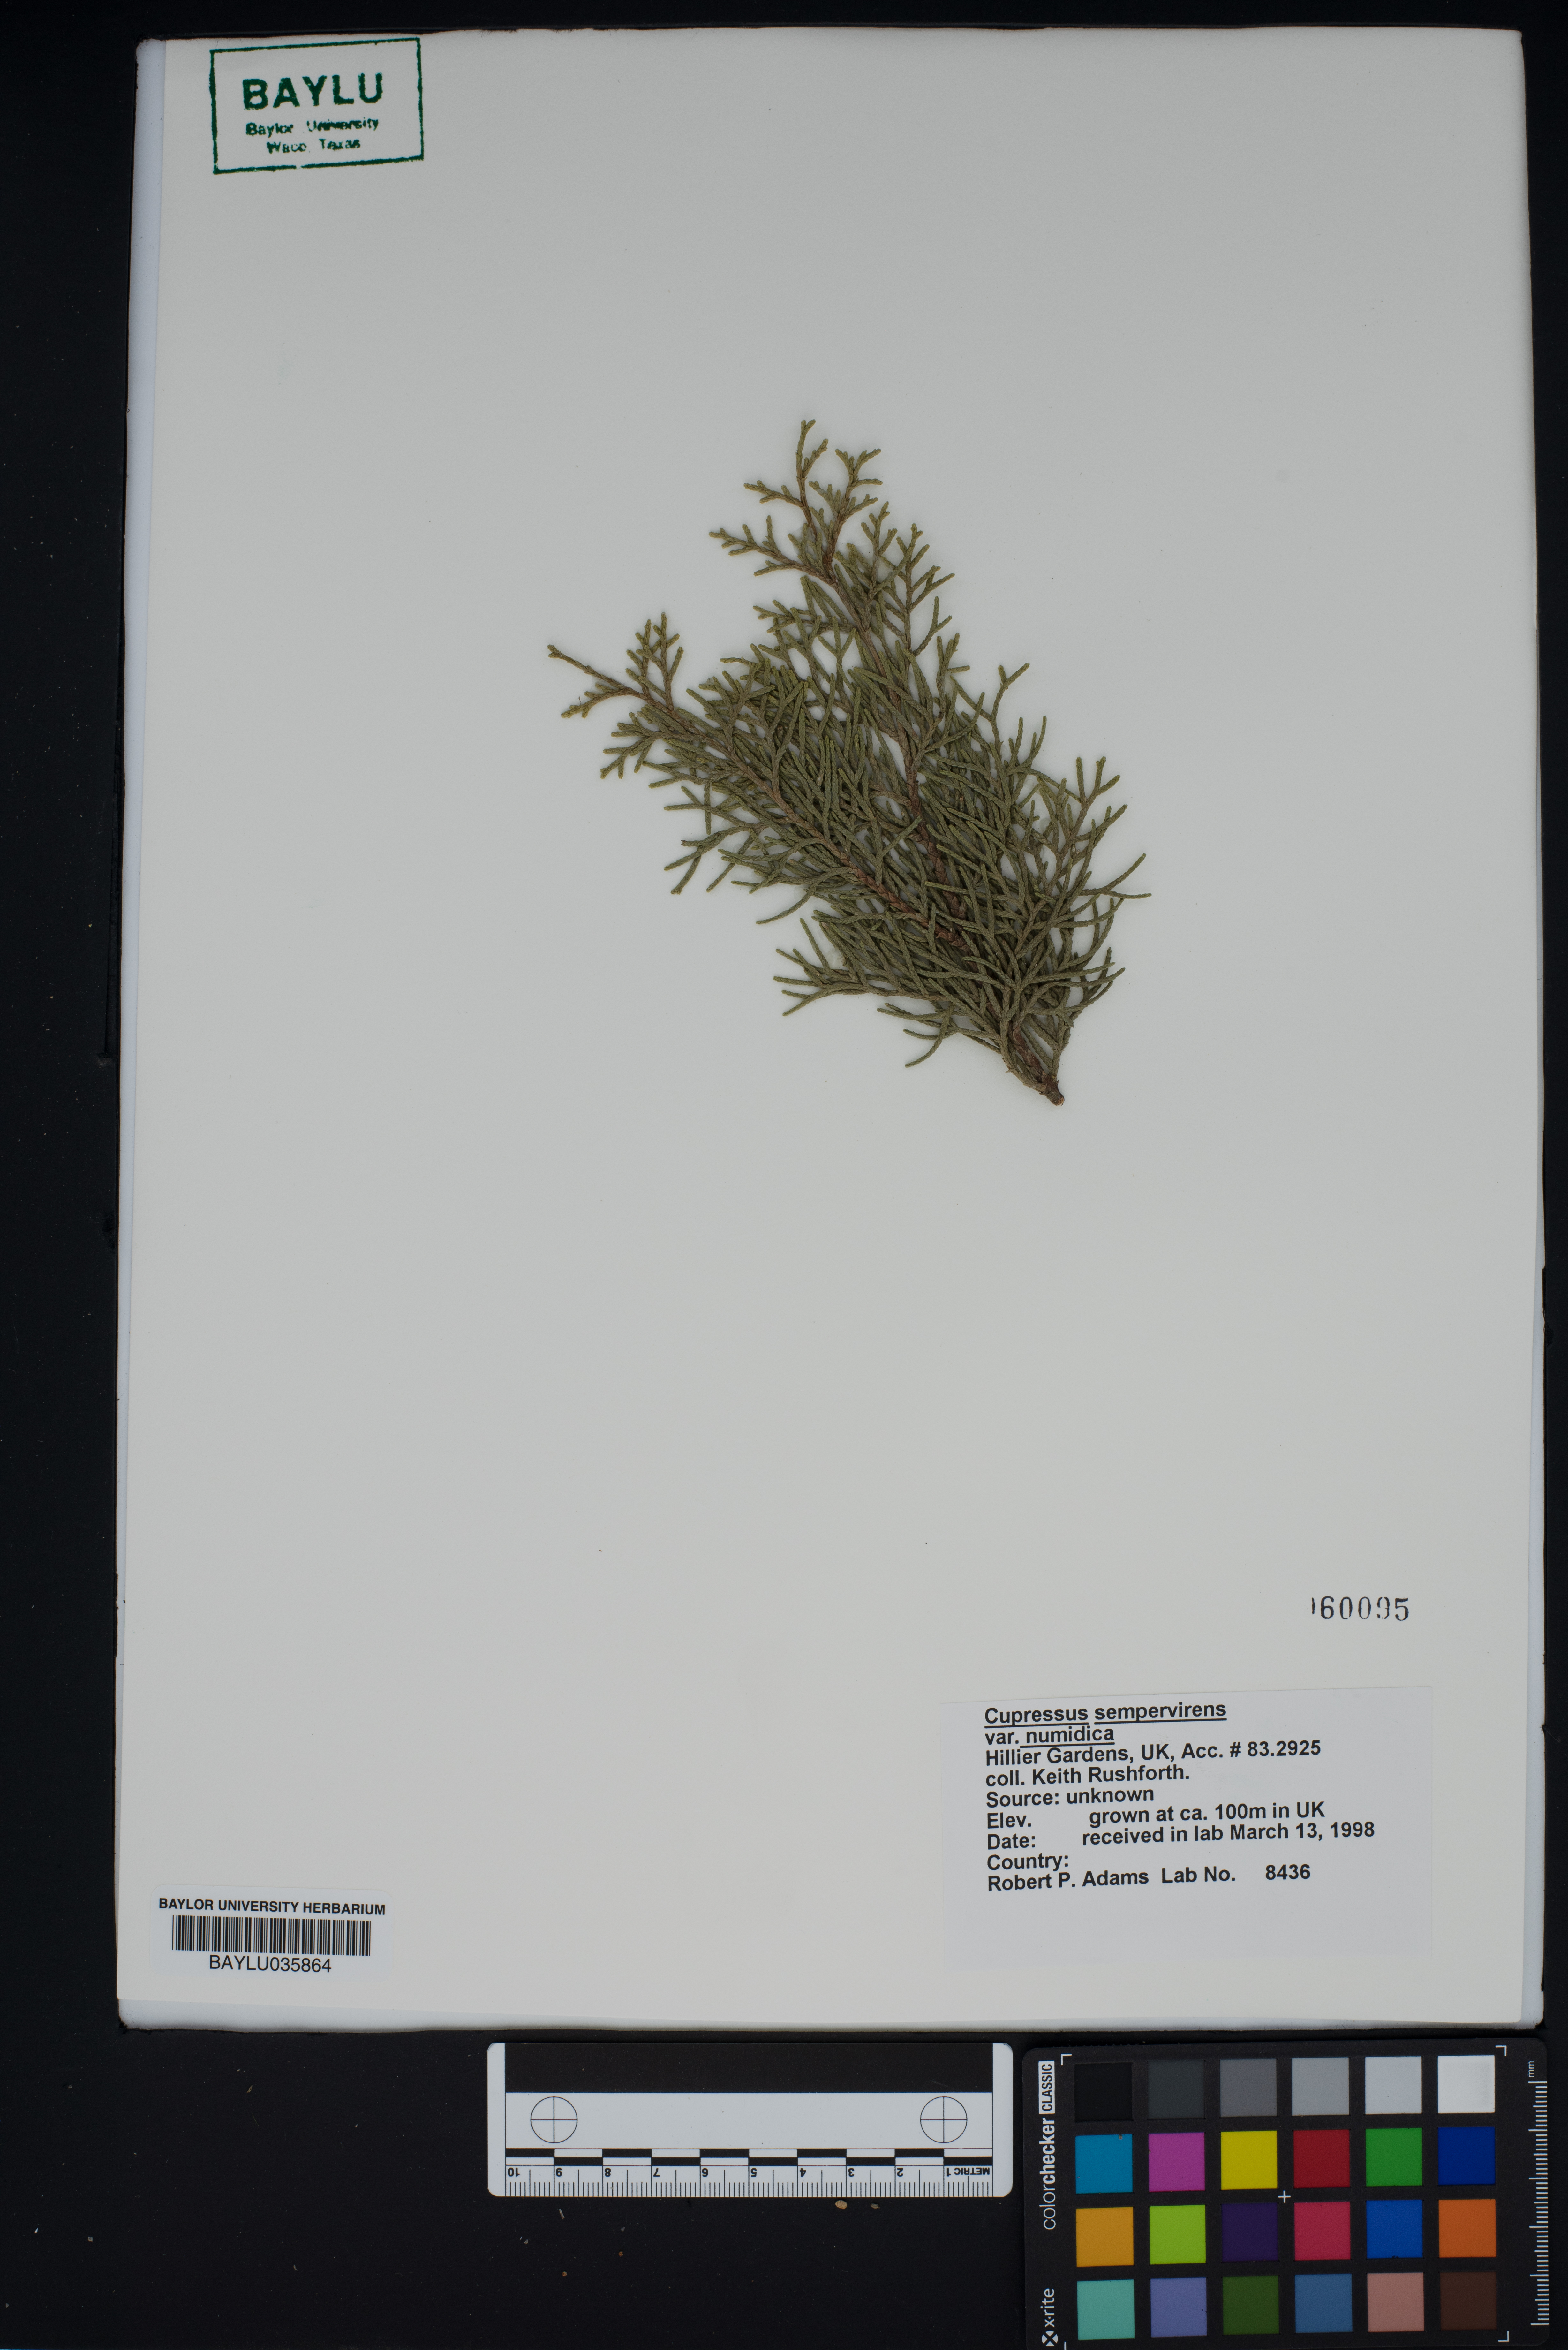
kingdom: Plantae
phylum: Tracheophyta
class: Pinopsida
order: Pinales
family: Cupressaceae
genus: Cupressus
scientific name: Cupressus sempervirens
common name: Italian cypress
